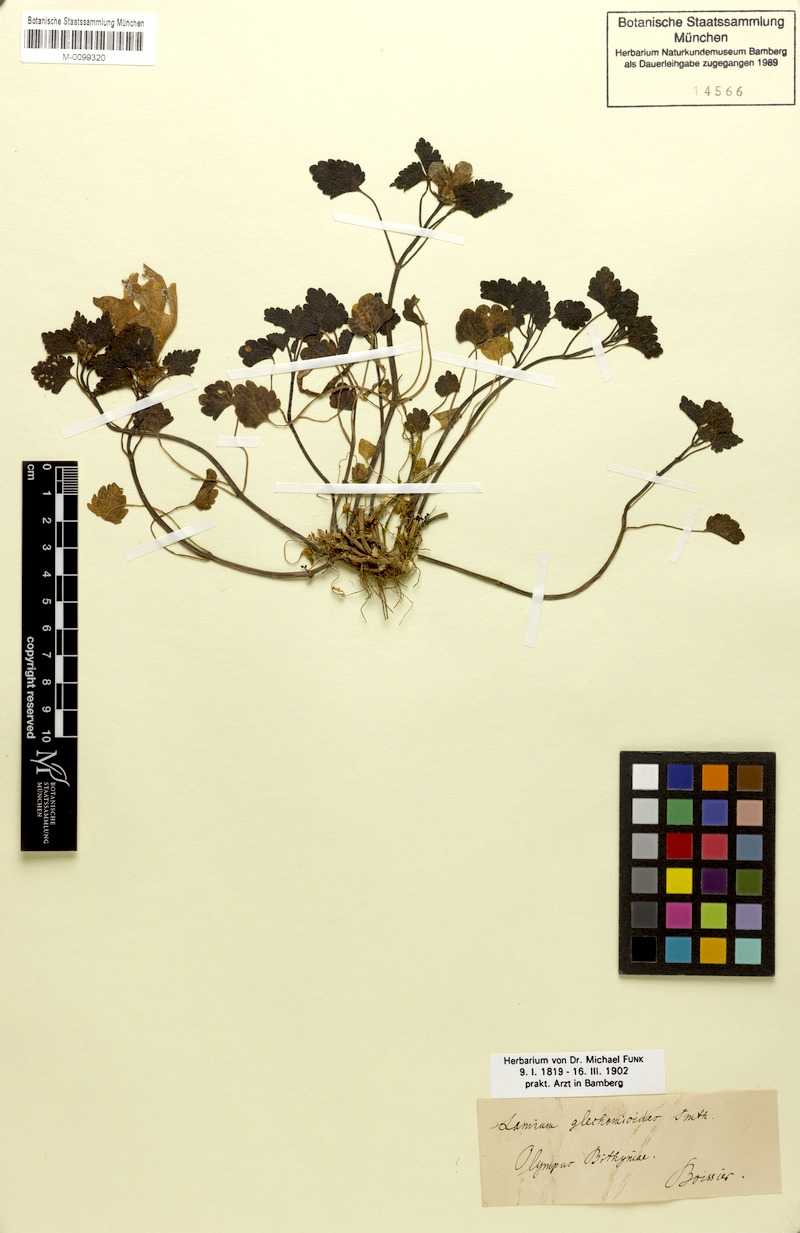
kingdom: Plantae
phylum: Tracheophyta
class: Magnoliopsida
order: Lamiales
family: Lamiaceae
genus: Lamium
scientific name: Lamium garganicum
